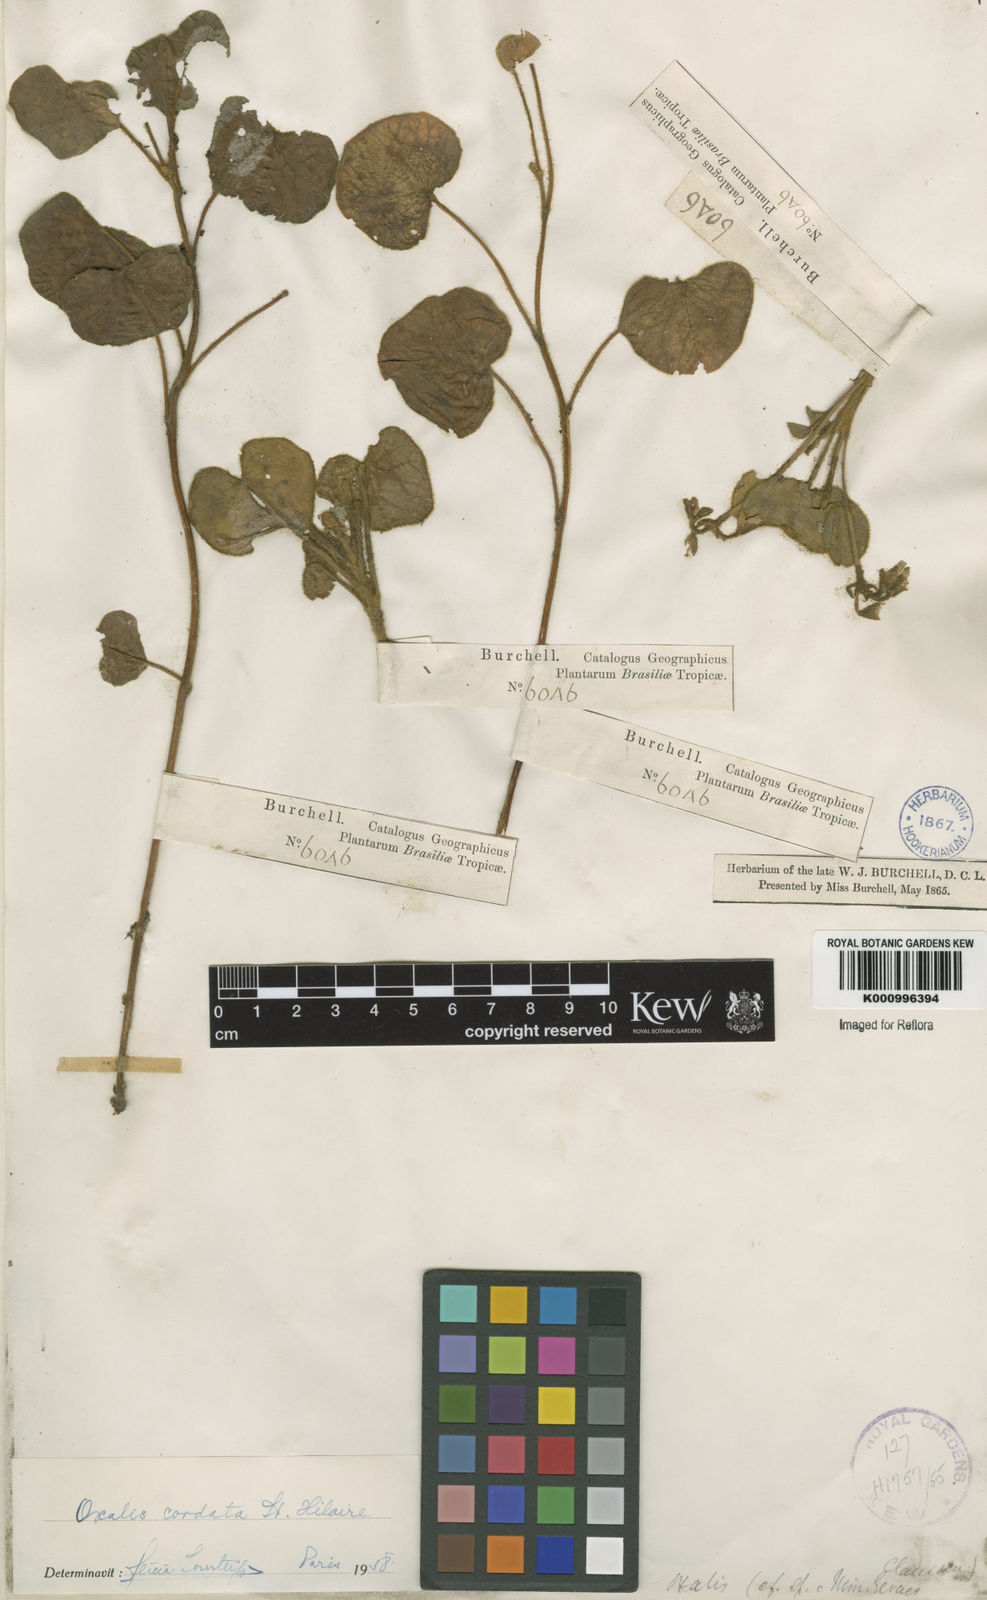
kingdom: Plantae
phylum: Tracheophyta
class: Magnoliopsida
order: Oxalidales
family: Oxalidaceae
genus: Oxalis
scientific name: Oxalis cordata
